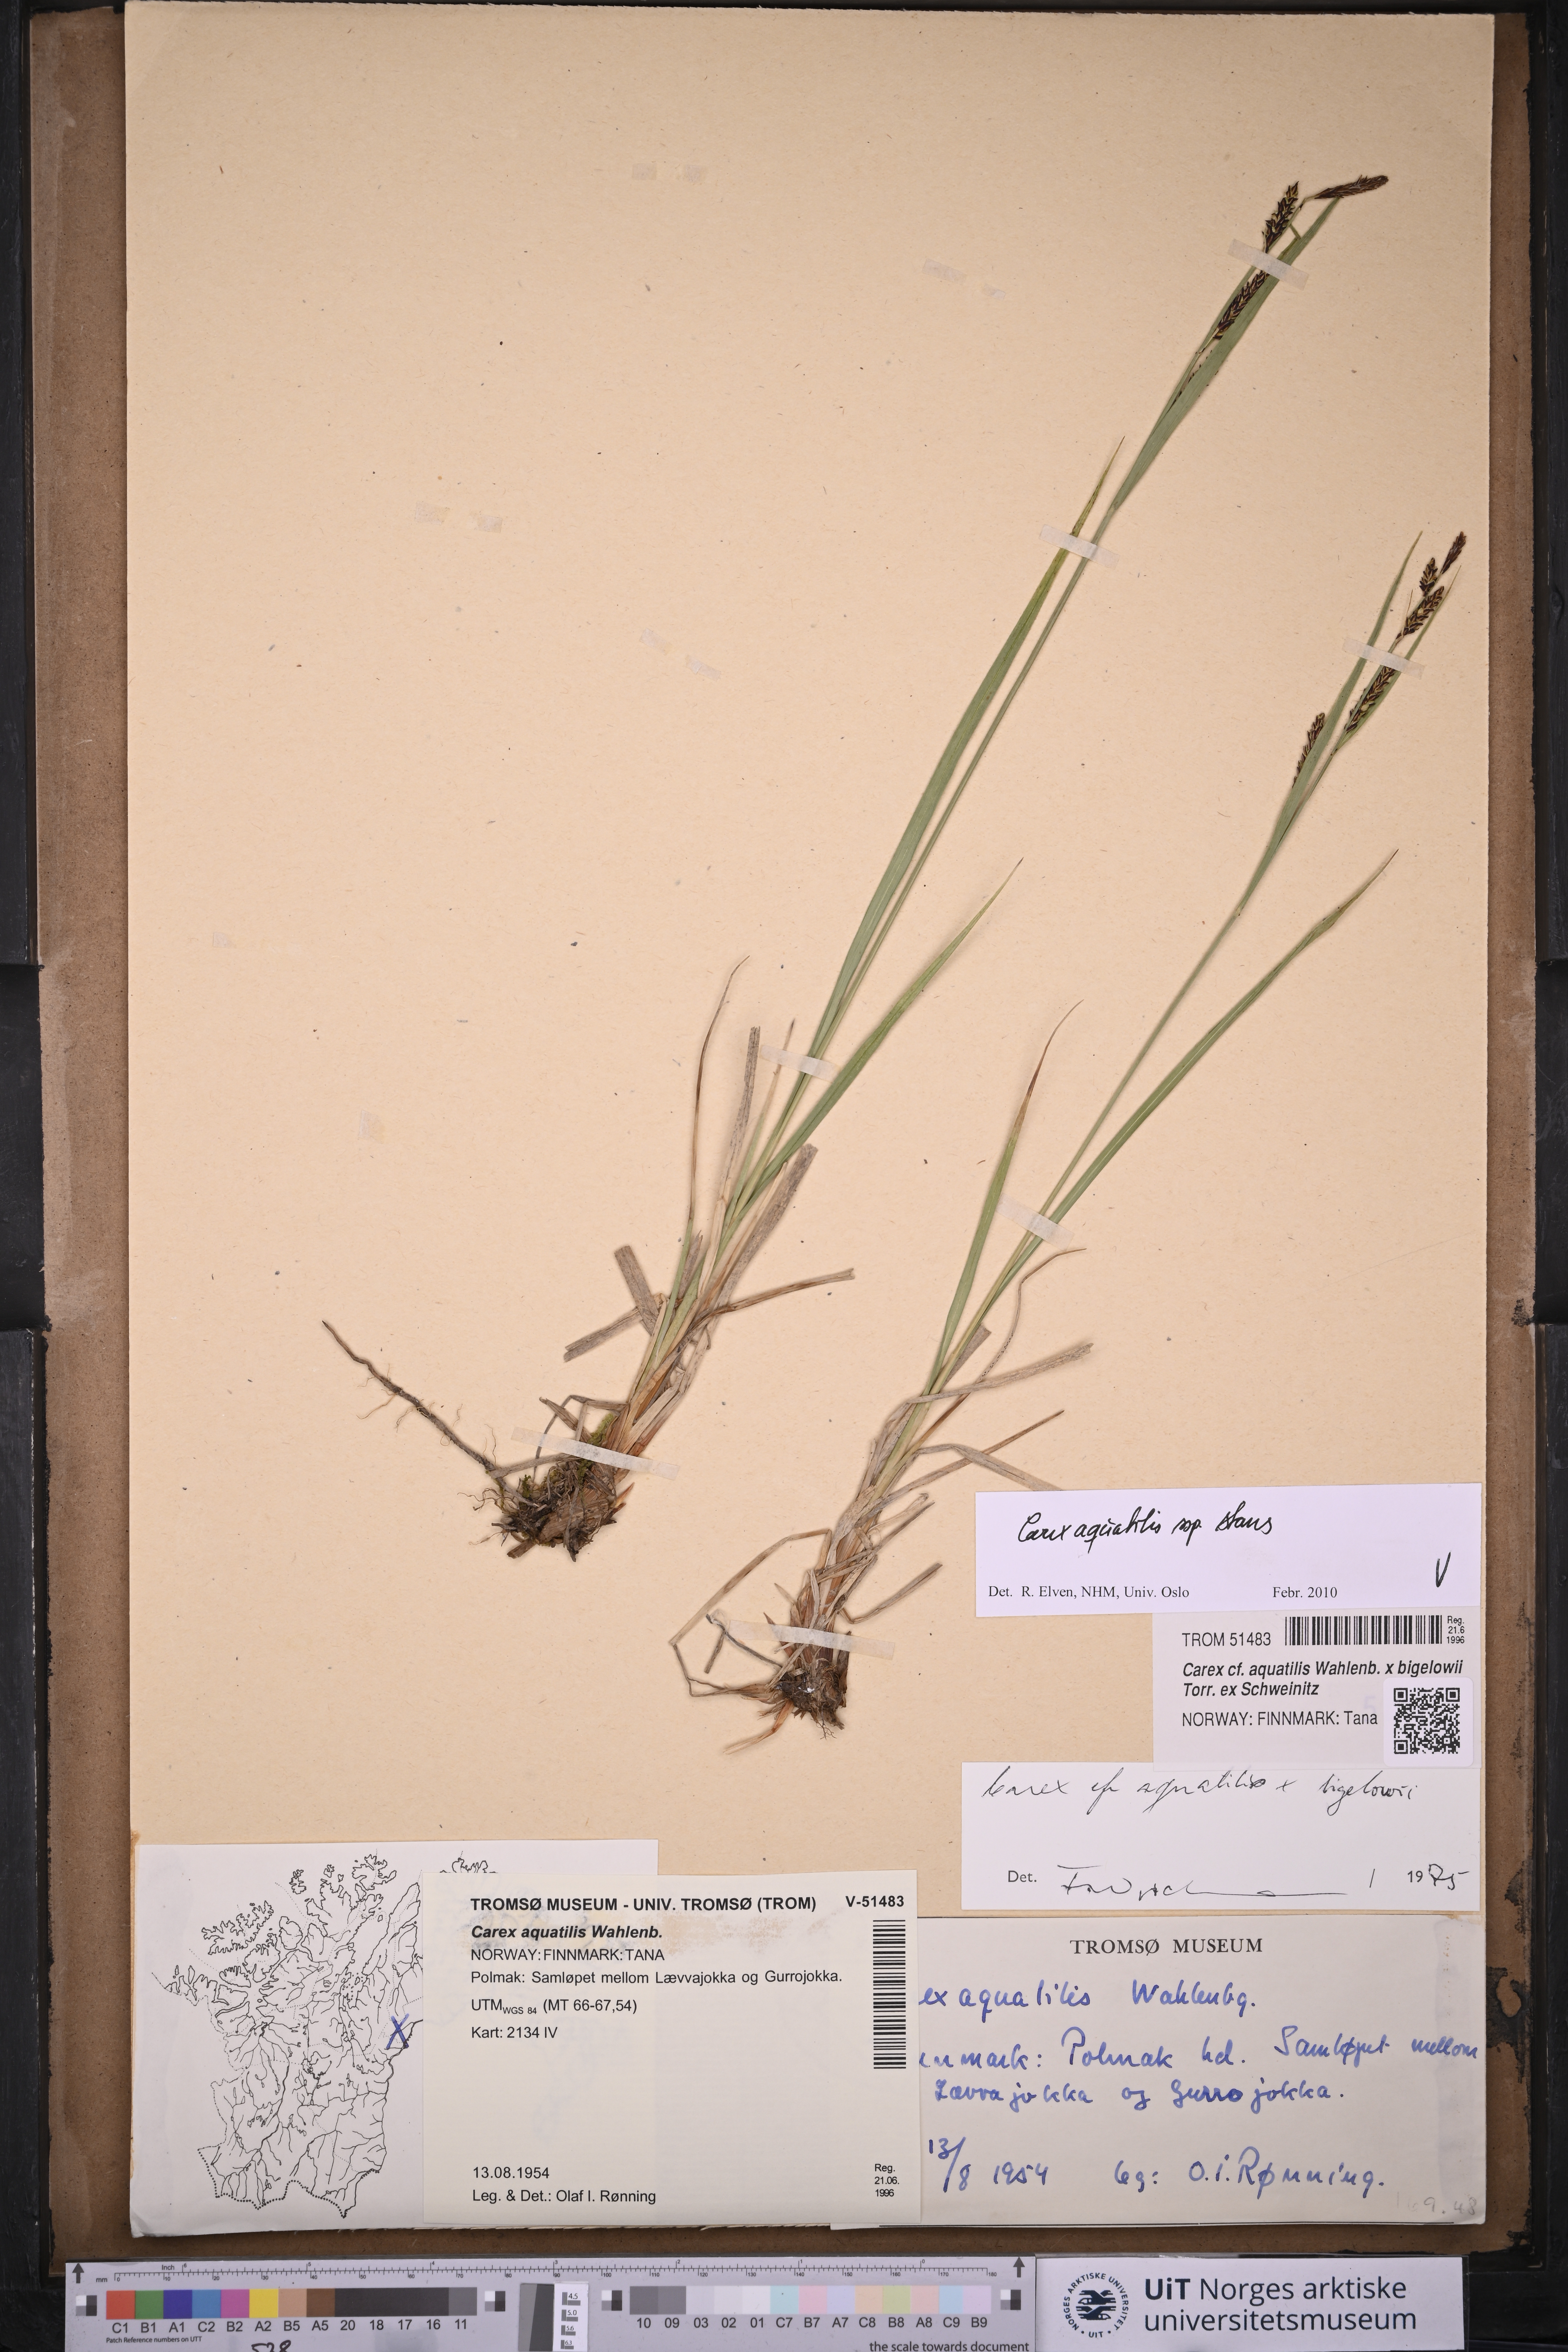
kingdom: Plantae
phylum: Tracheophyta
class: Liliopsida
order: Poales
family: Cyperaceae
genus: Carex
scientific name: Carex aquatilis
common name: Water sedge
